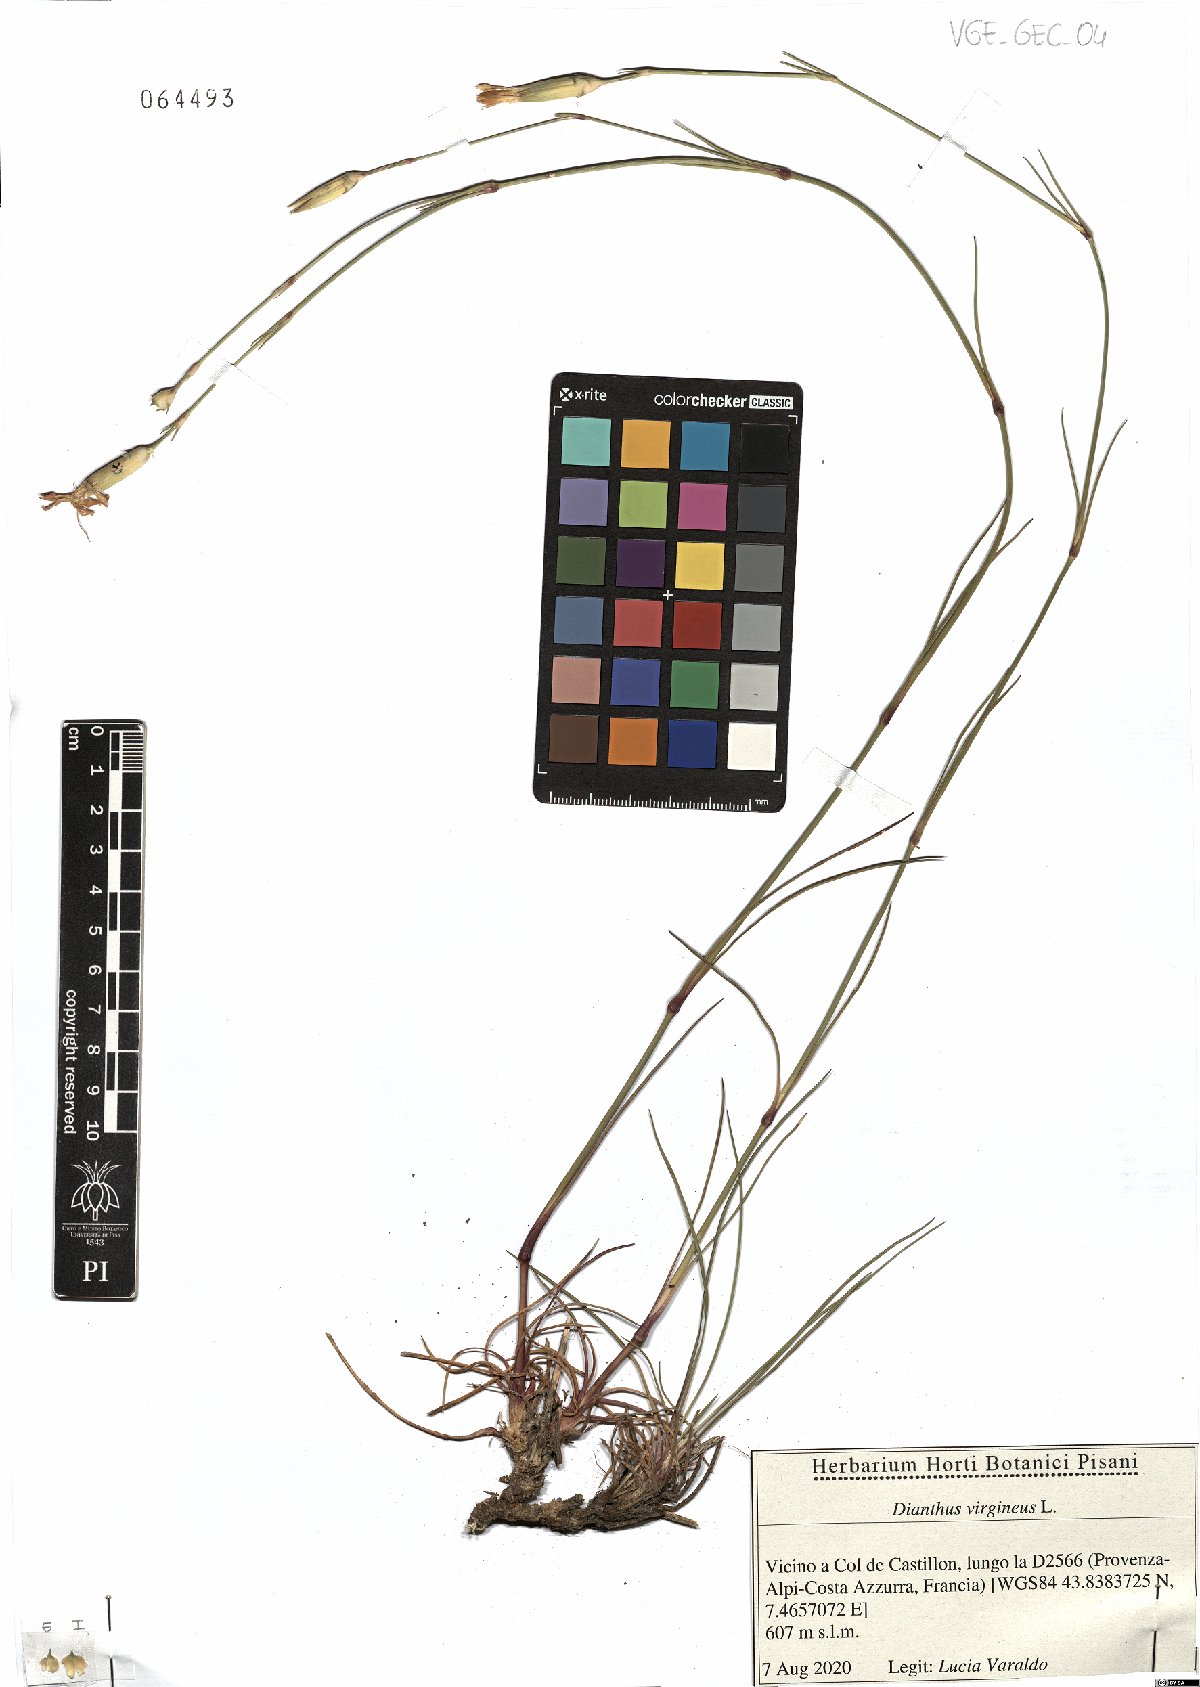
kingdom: Plantae
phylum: Tracheophyta
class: Magnoliopsida
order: Caryophyllales
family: Caryophyllaceae
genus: Dianthus
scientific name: Dianthus virgineus
